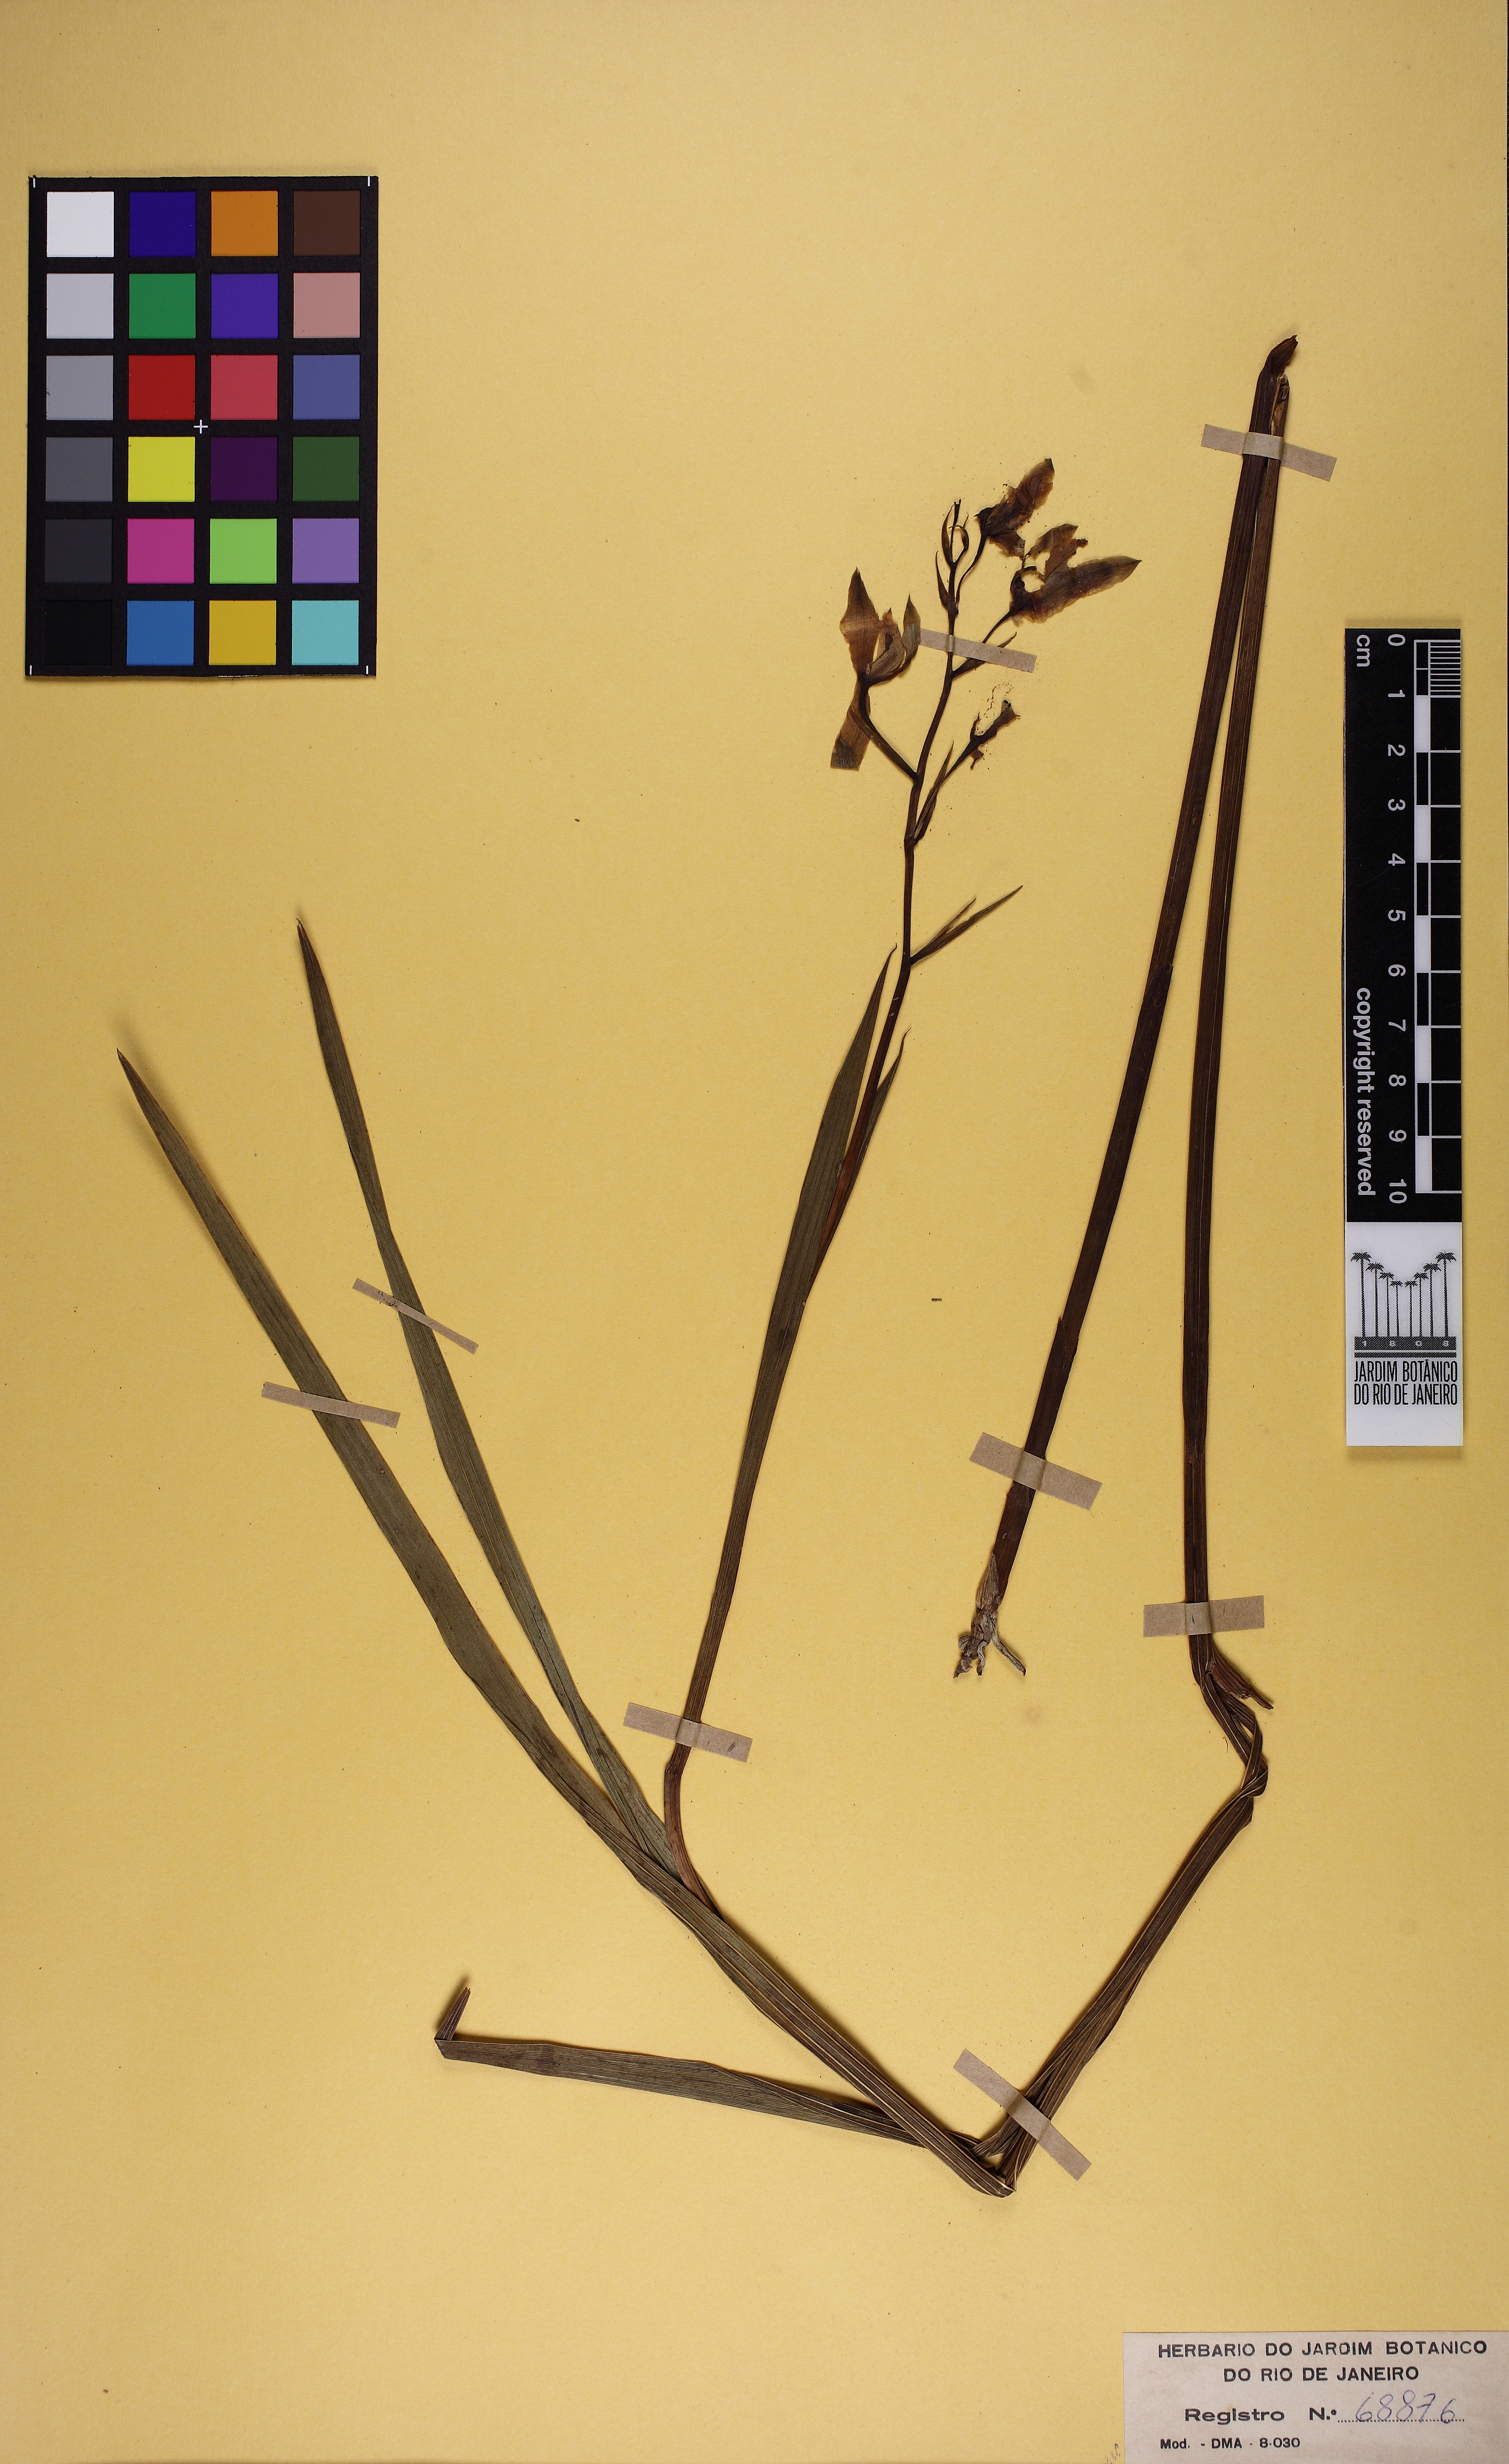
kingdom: Plantae
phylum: Tracheophyta
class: Liliopsida
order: Asparagales
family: Orchidaceae
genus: Cyanaeorchis
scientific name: Cyanaeorchis arundinae
